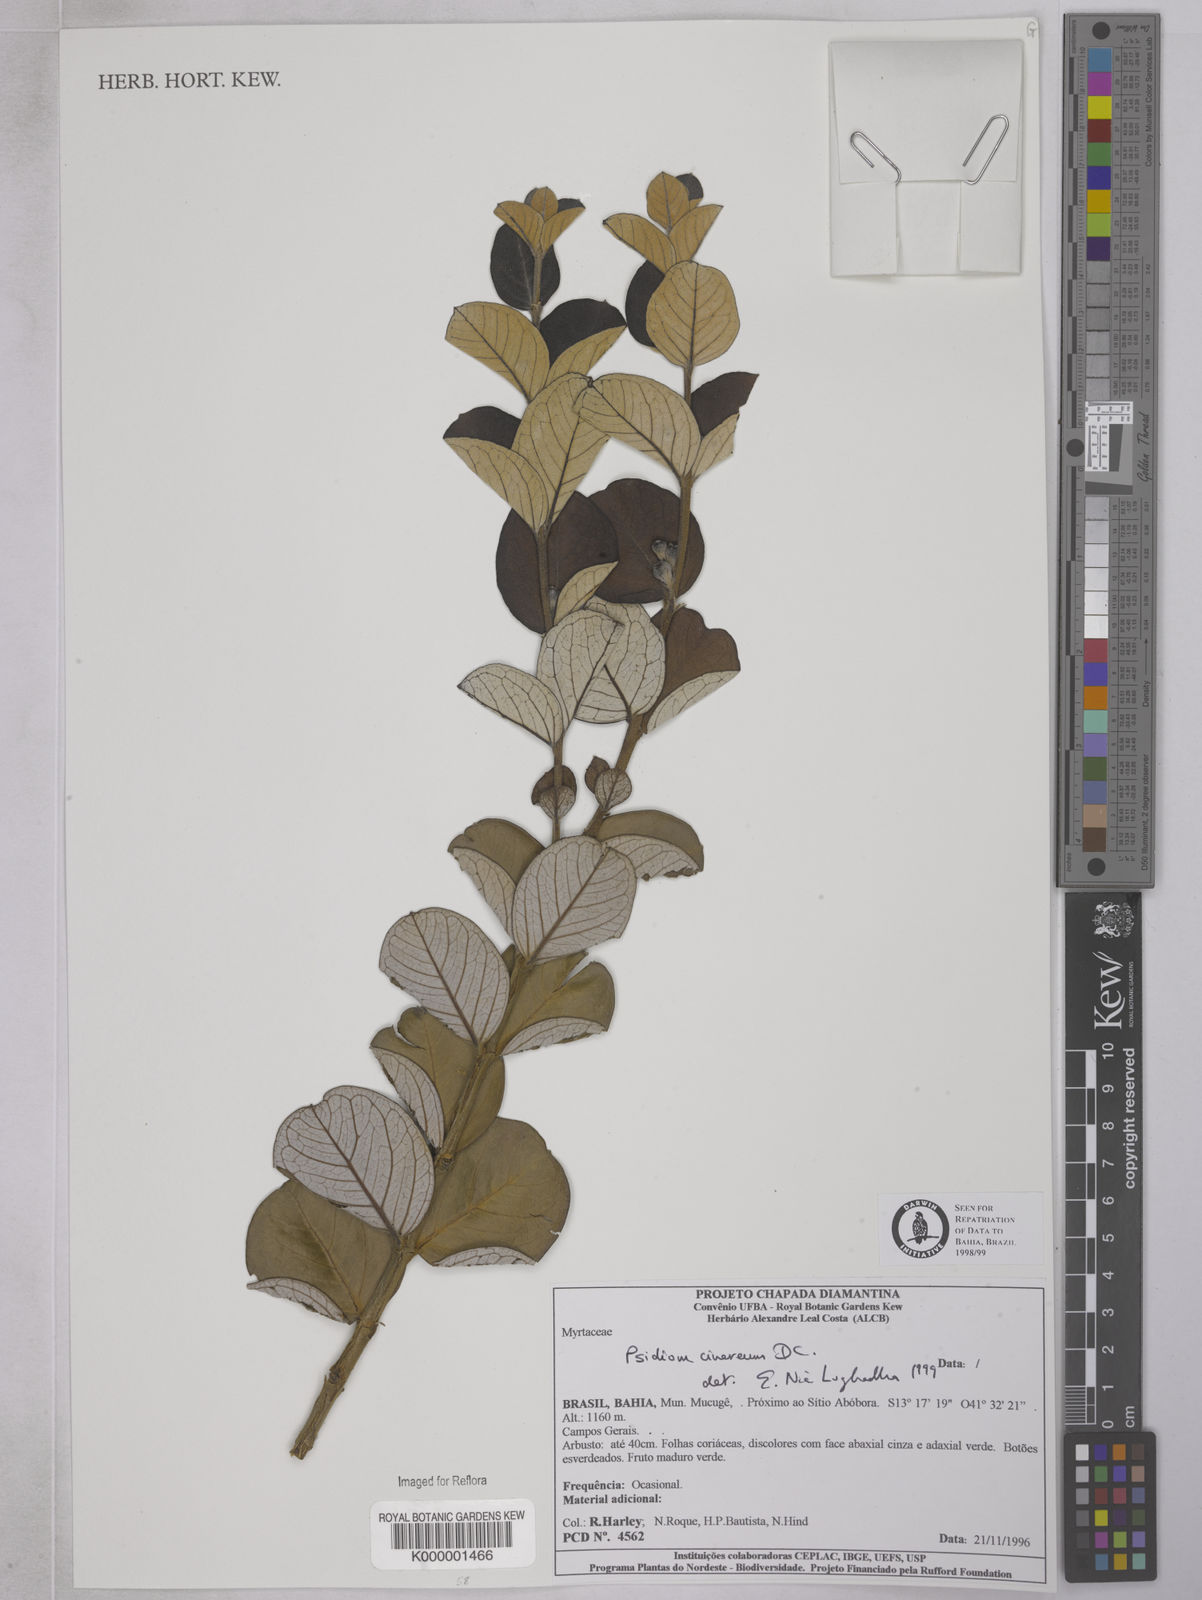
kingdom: Plantae
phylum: Tracheophyta
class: Magnoliopsida
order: Myrtales
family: Myrtaceae
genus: Psidium
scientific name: Psidium grandifolium
